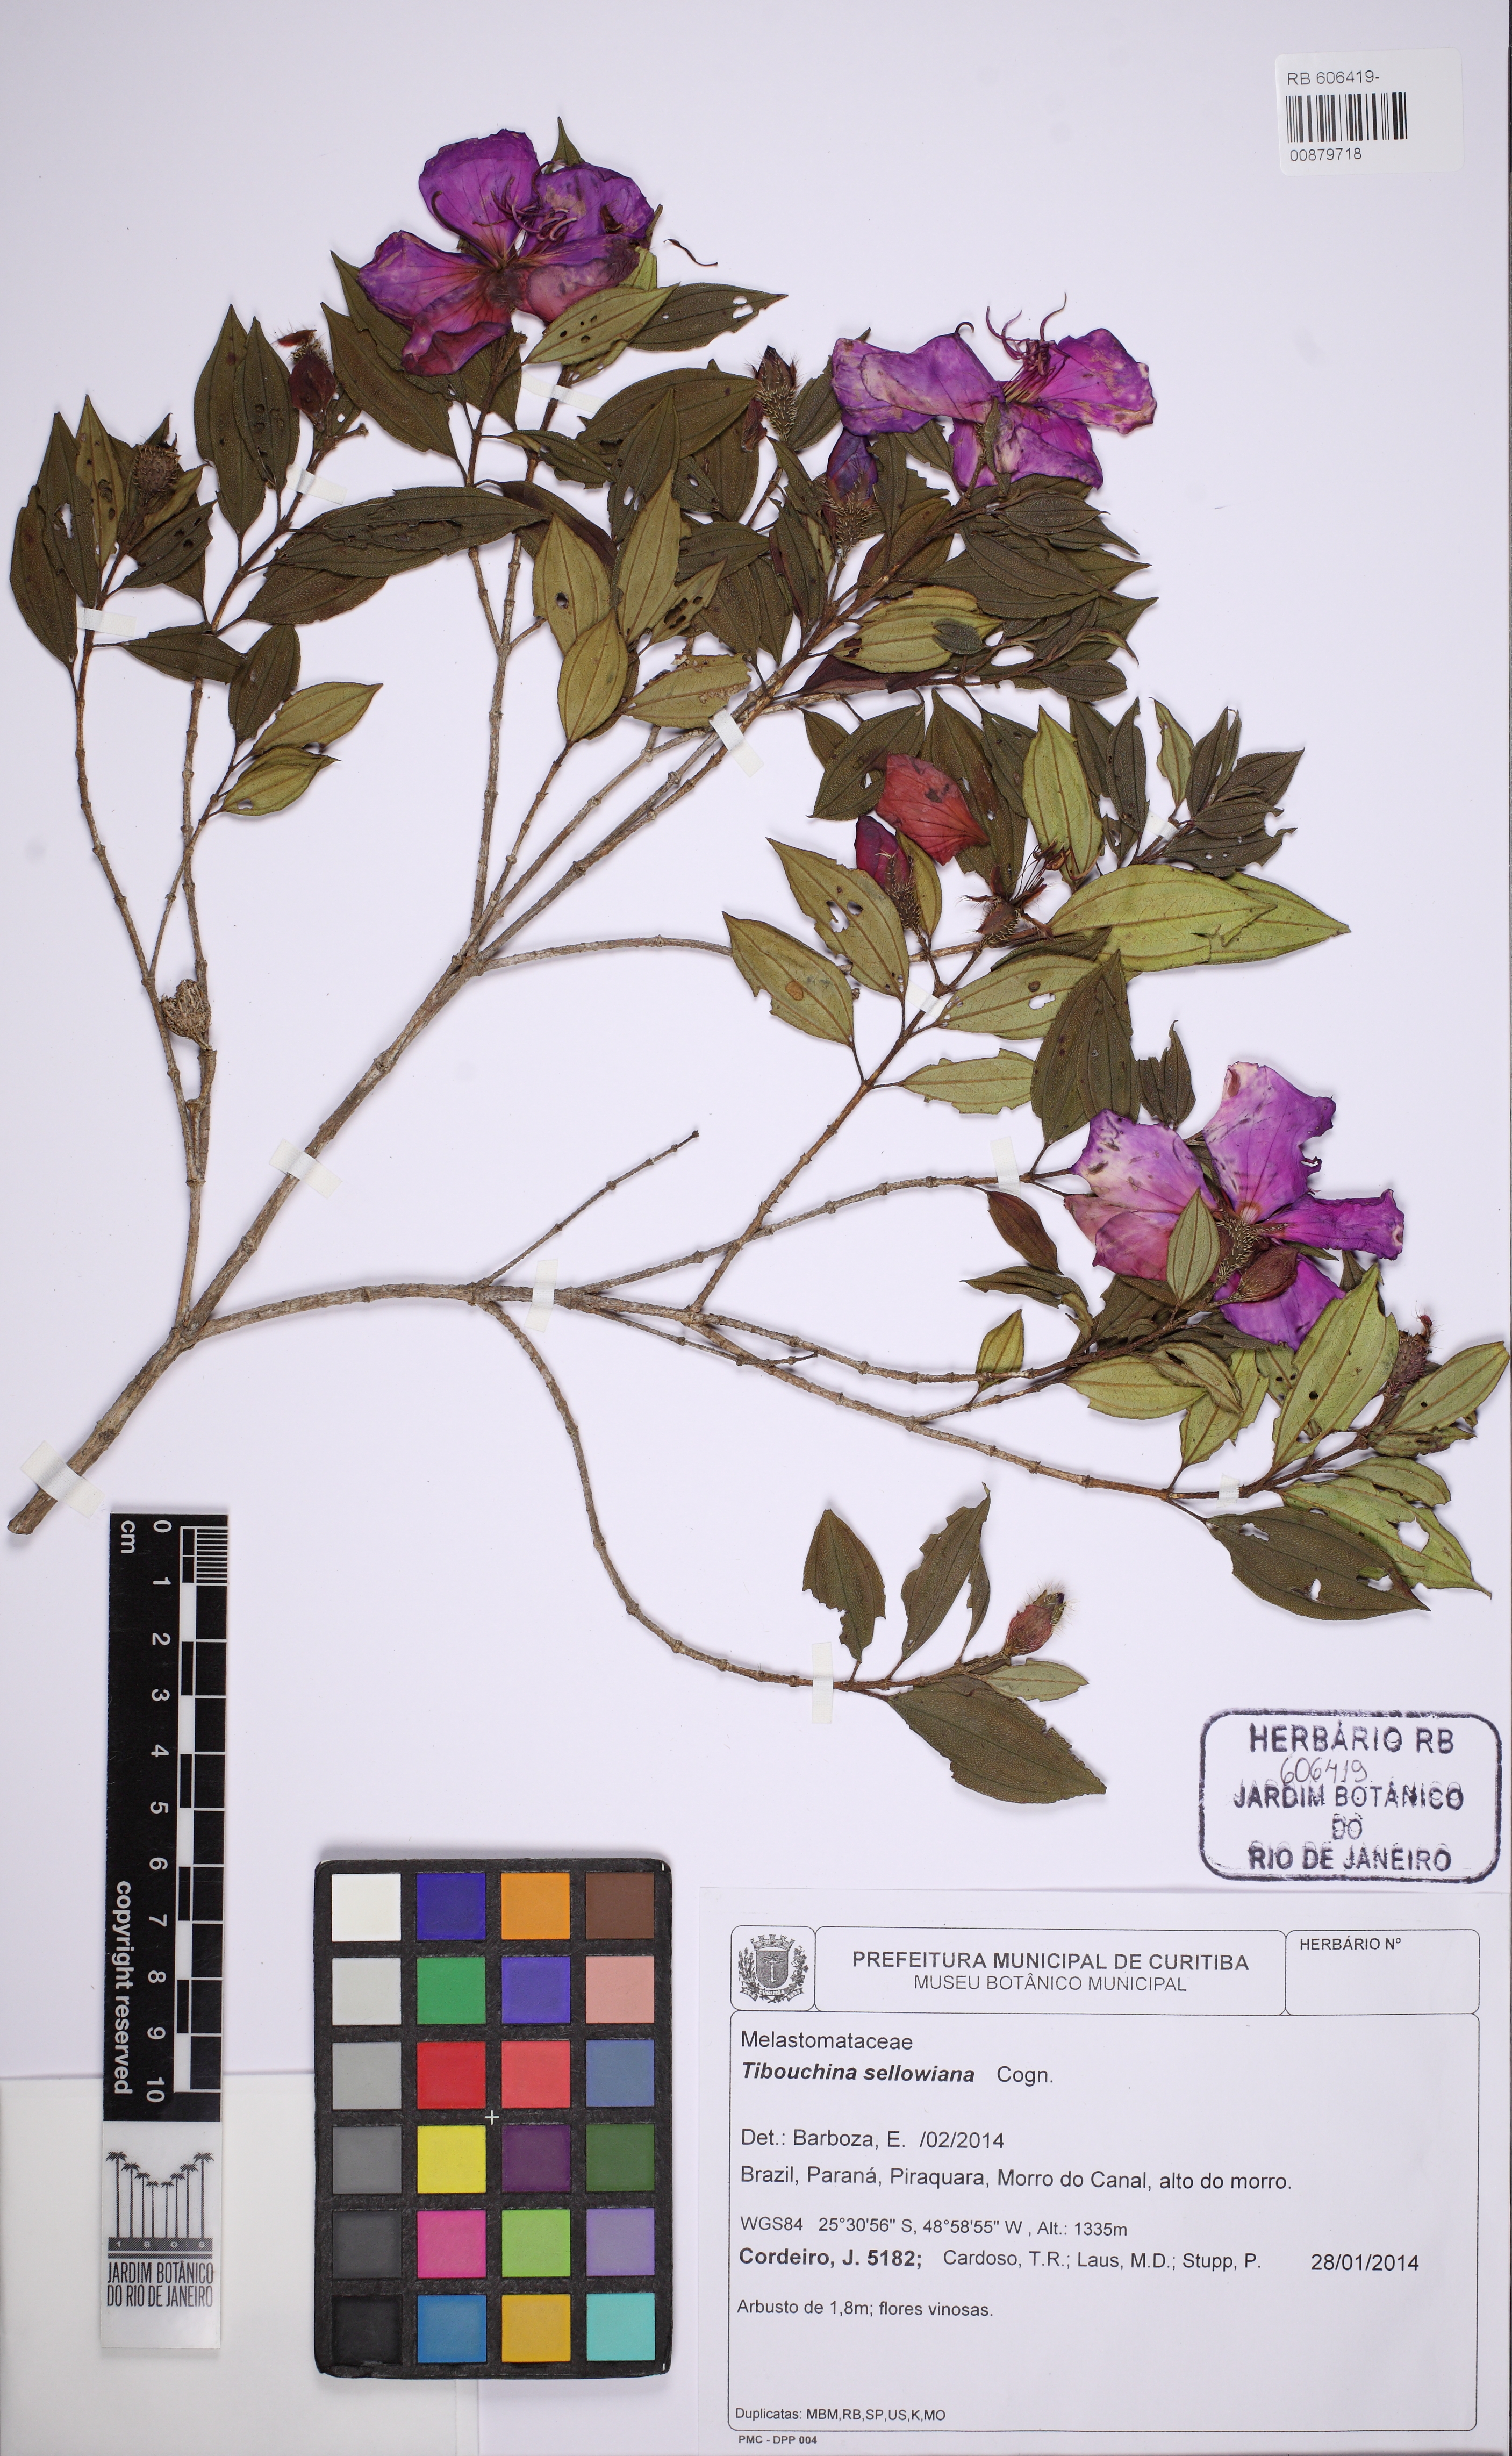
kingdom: Plantae
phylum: Tracheophyta
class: Magnoliopsida
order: Myrtales
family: Melastomataceae
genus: Pleroma
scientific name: Pleroma sellowianum
